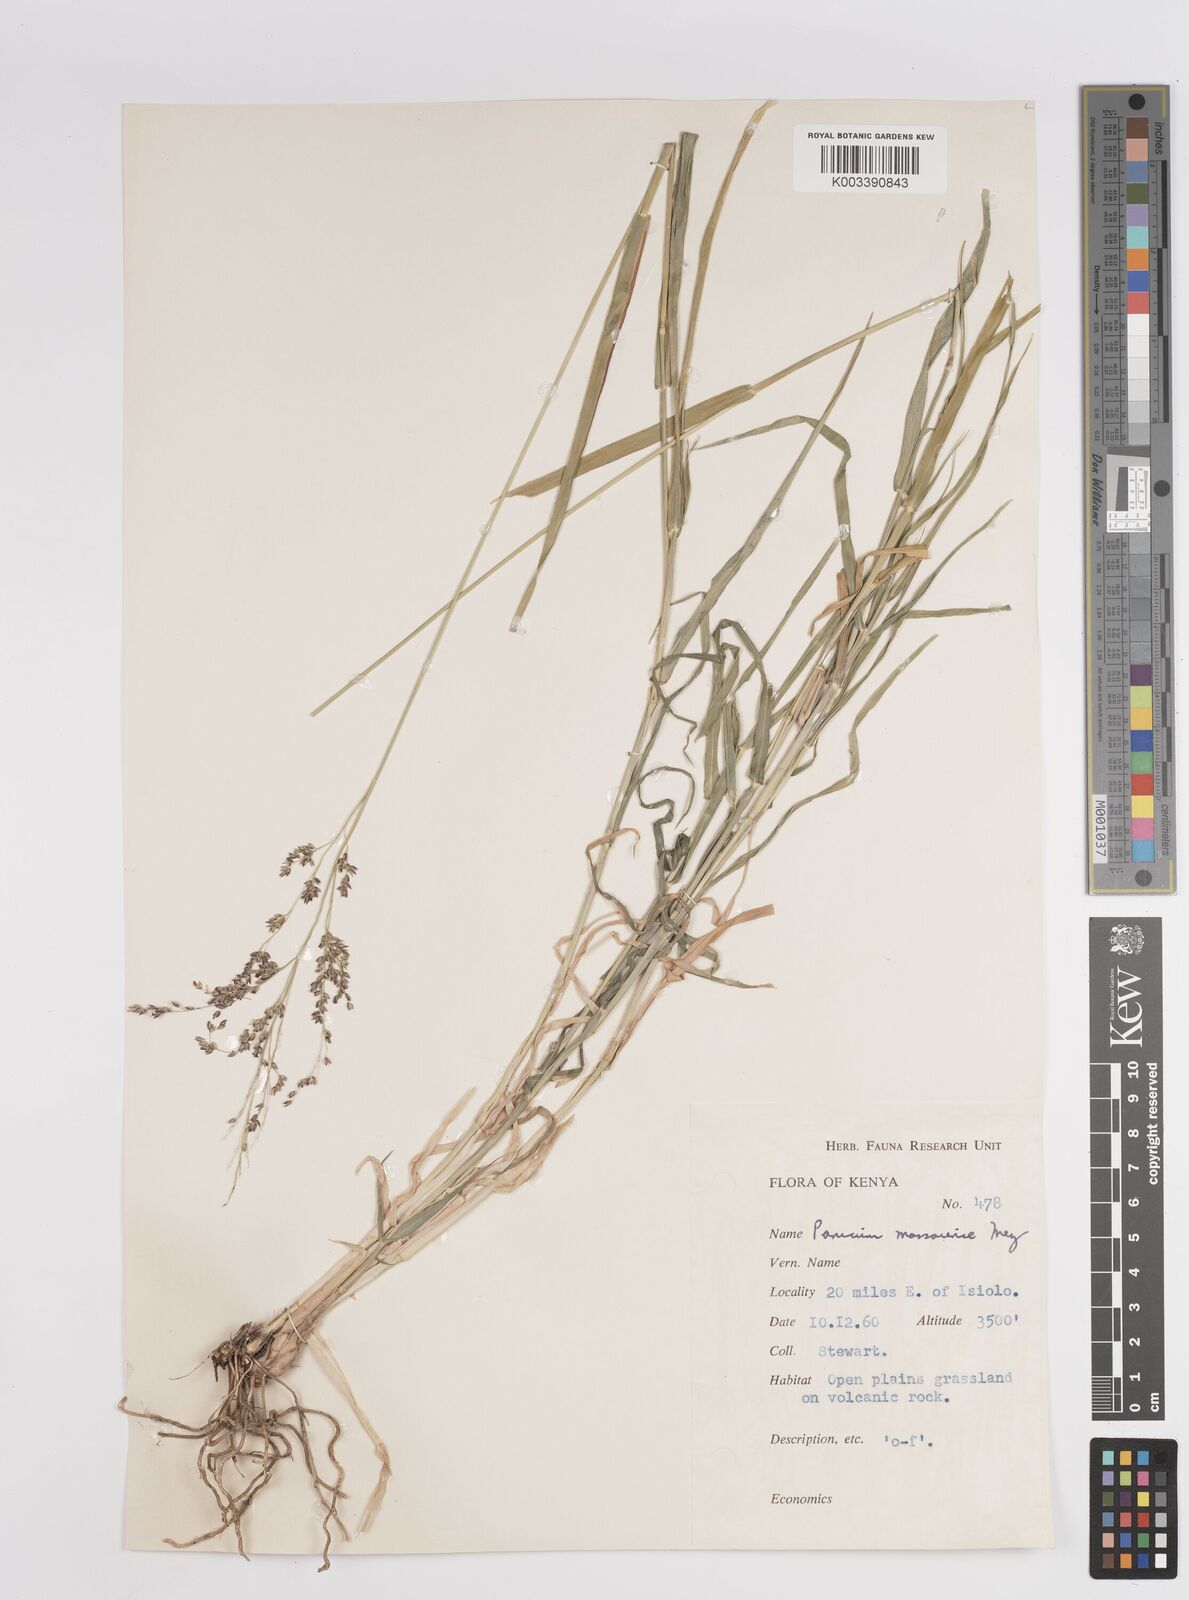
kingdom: Plantae
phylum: Tracheophyta
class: Liliopsida
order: Poales
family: Poaceae
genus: Panicum
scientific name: Panicum coloratum
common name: Kleingrass
